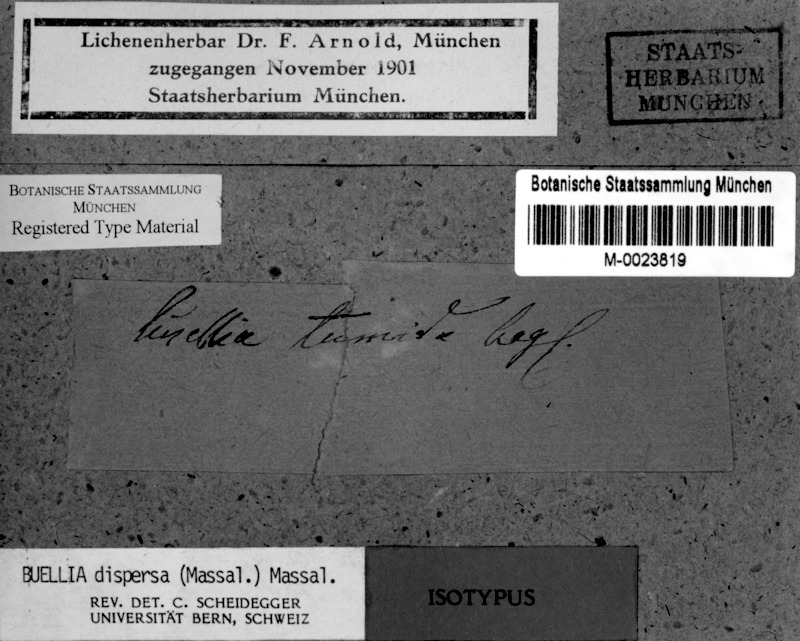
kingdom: Fungi
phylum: Ascomycota
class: Lecanoromycetes
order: Caliciales
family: Caliciaceae
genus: Buellia
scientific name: Buellia dispersa
